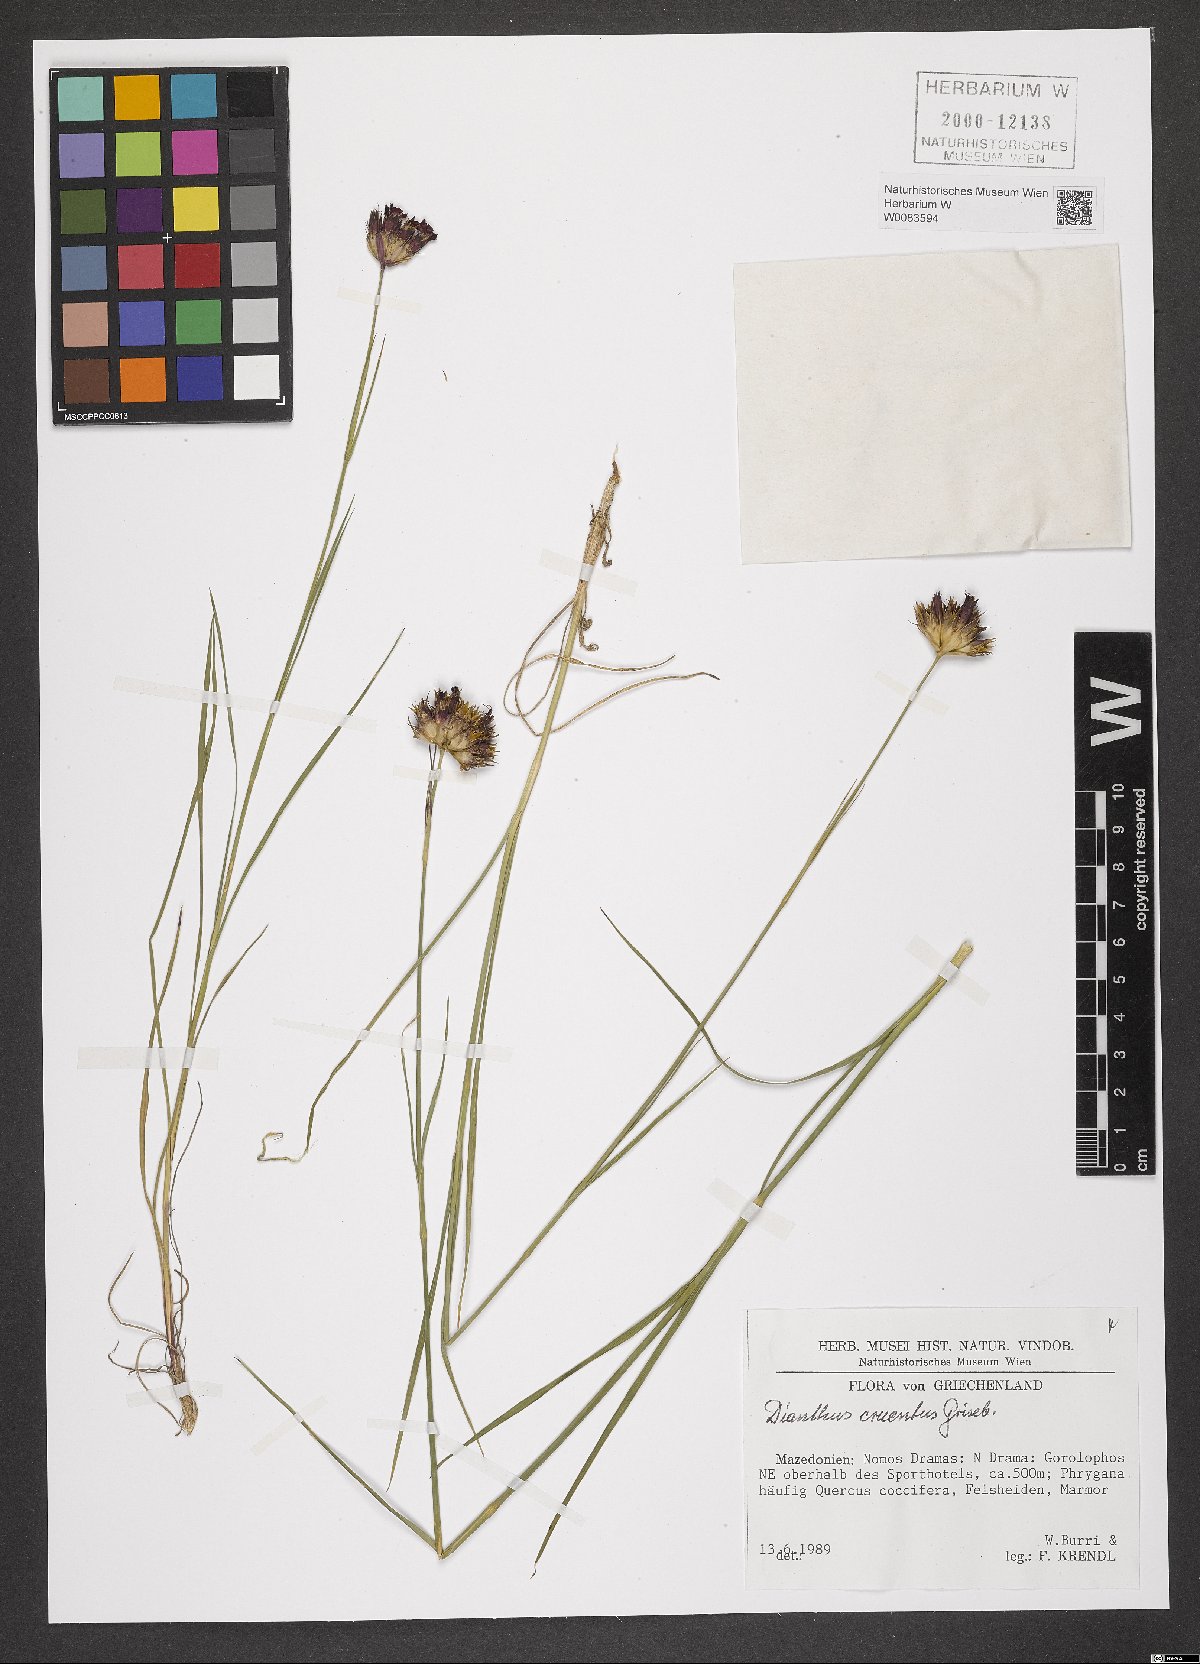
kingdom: Plantae
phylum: Tracheophyta
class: Magnoliopsida
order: Caryophyllales
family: Caryophyllaceae
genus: Dianthus
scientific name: Dianthus cruentus
